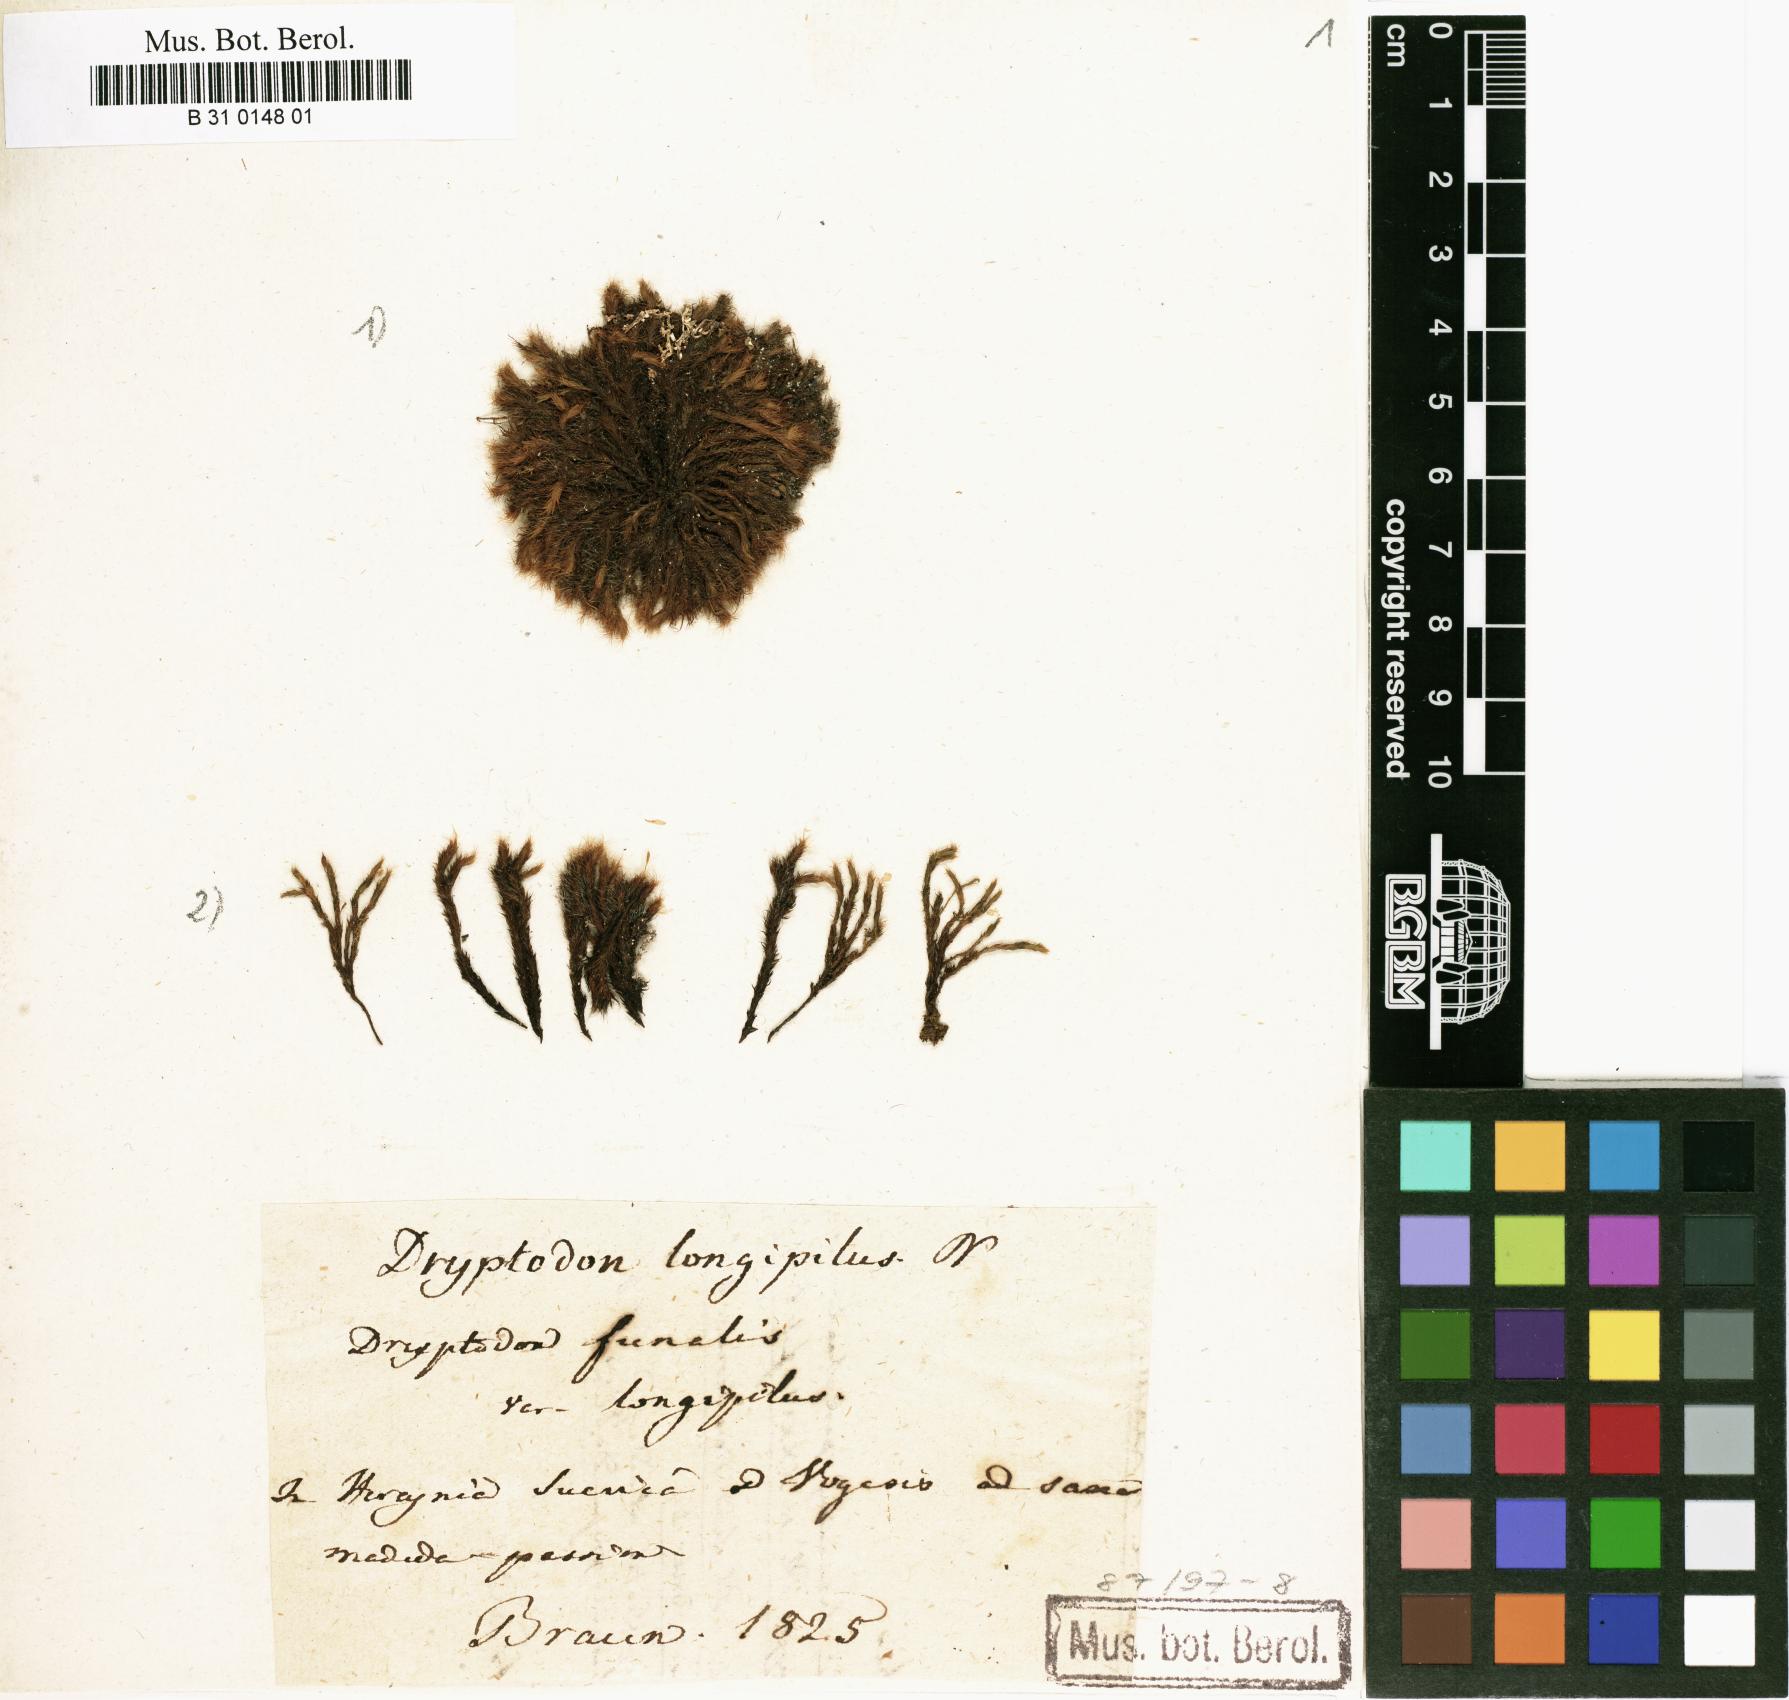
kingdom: Plantae
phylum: Bryophyta
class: Bryopsida
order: Grimmiales
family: Grimmiaceae
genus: Grimmia
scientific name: Grimmia decipiens
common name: Great grimmia
